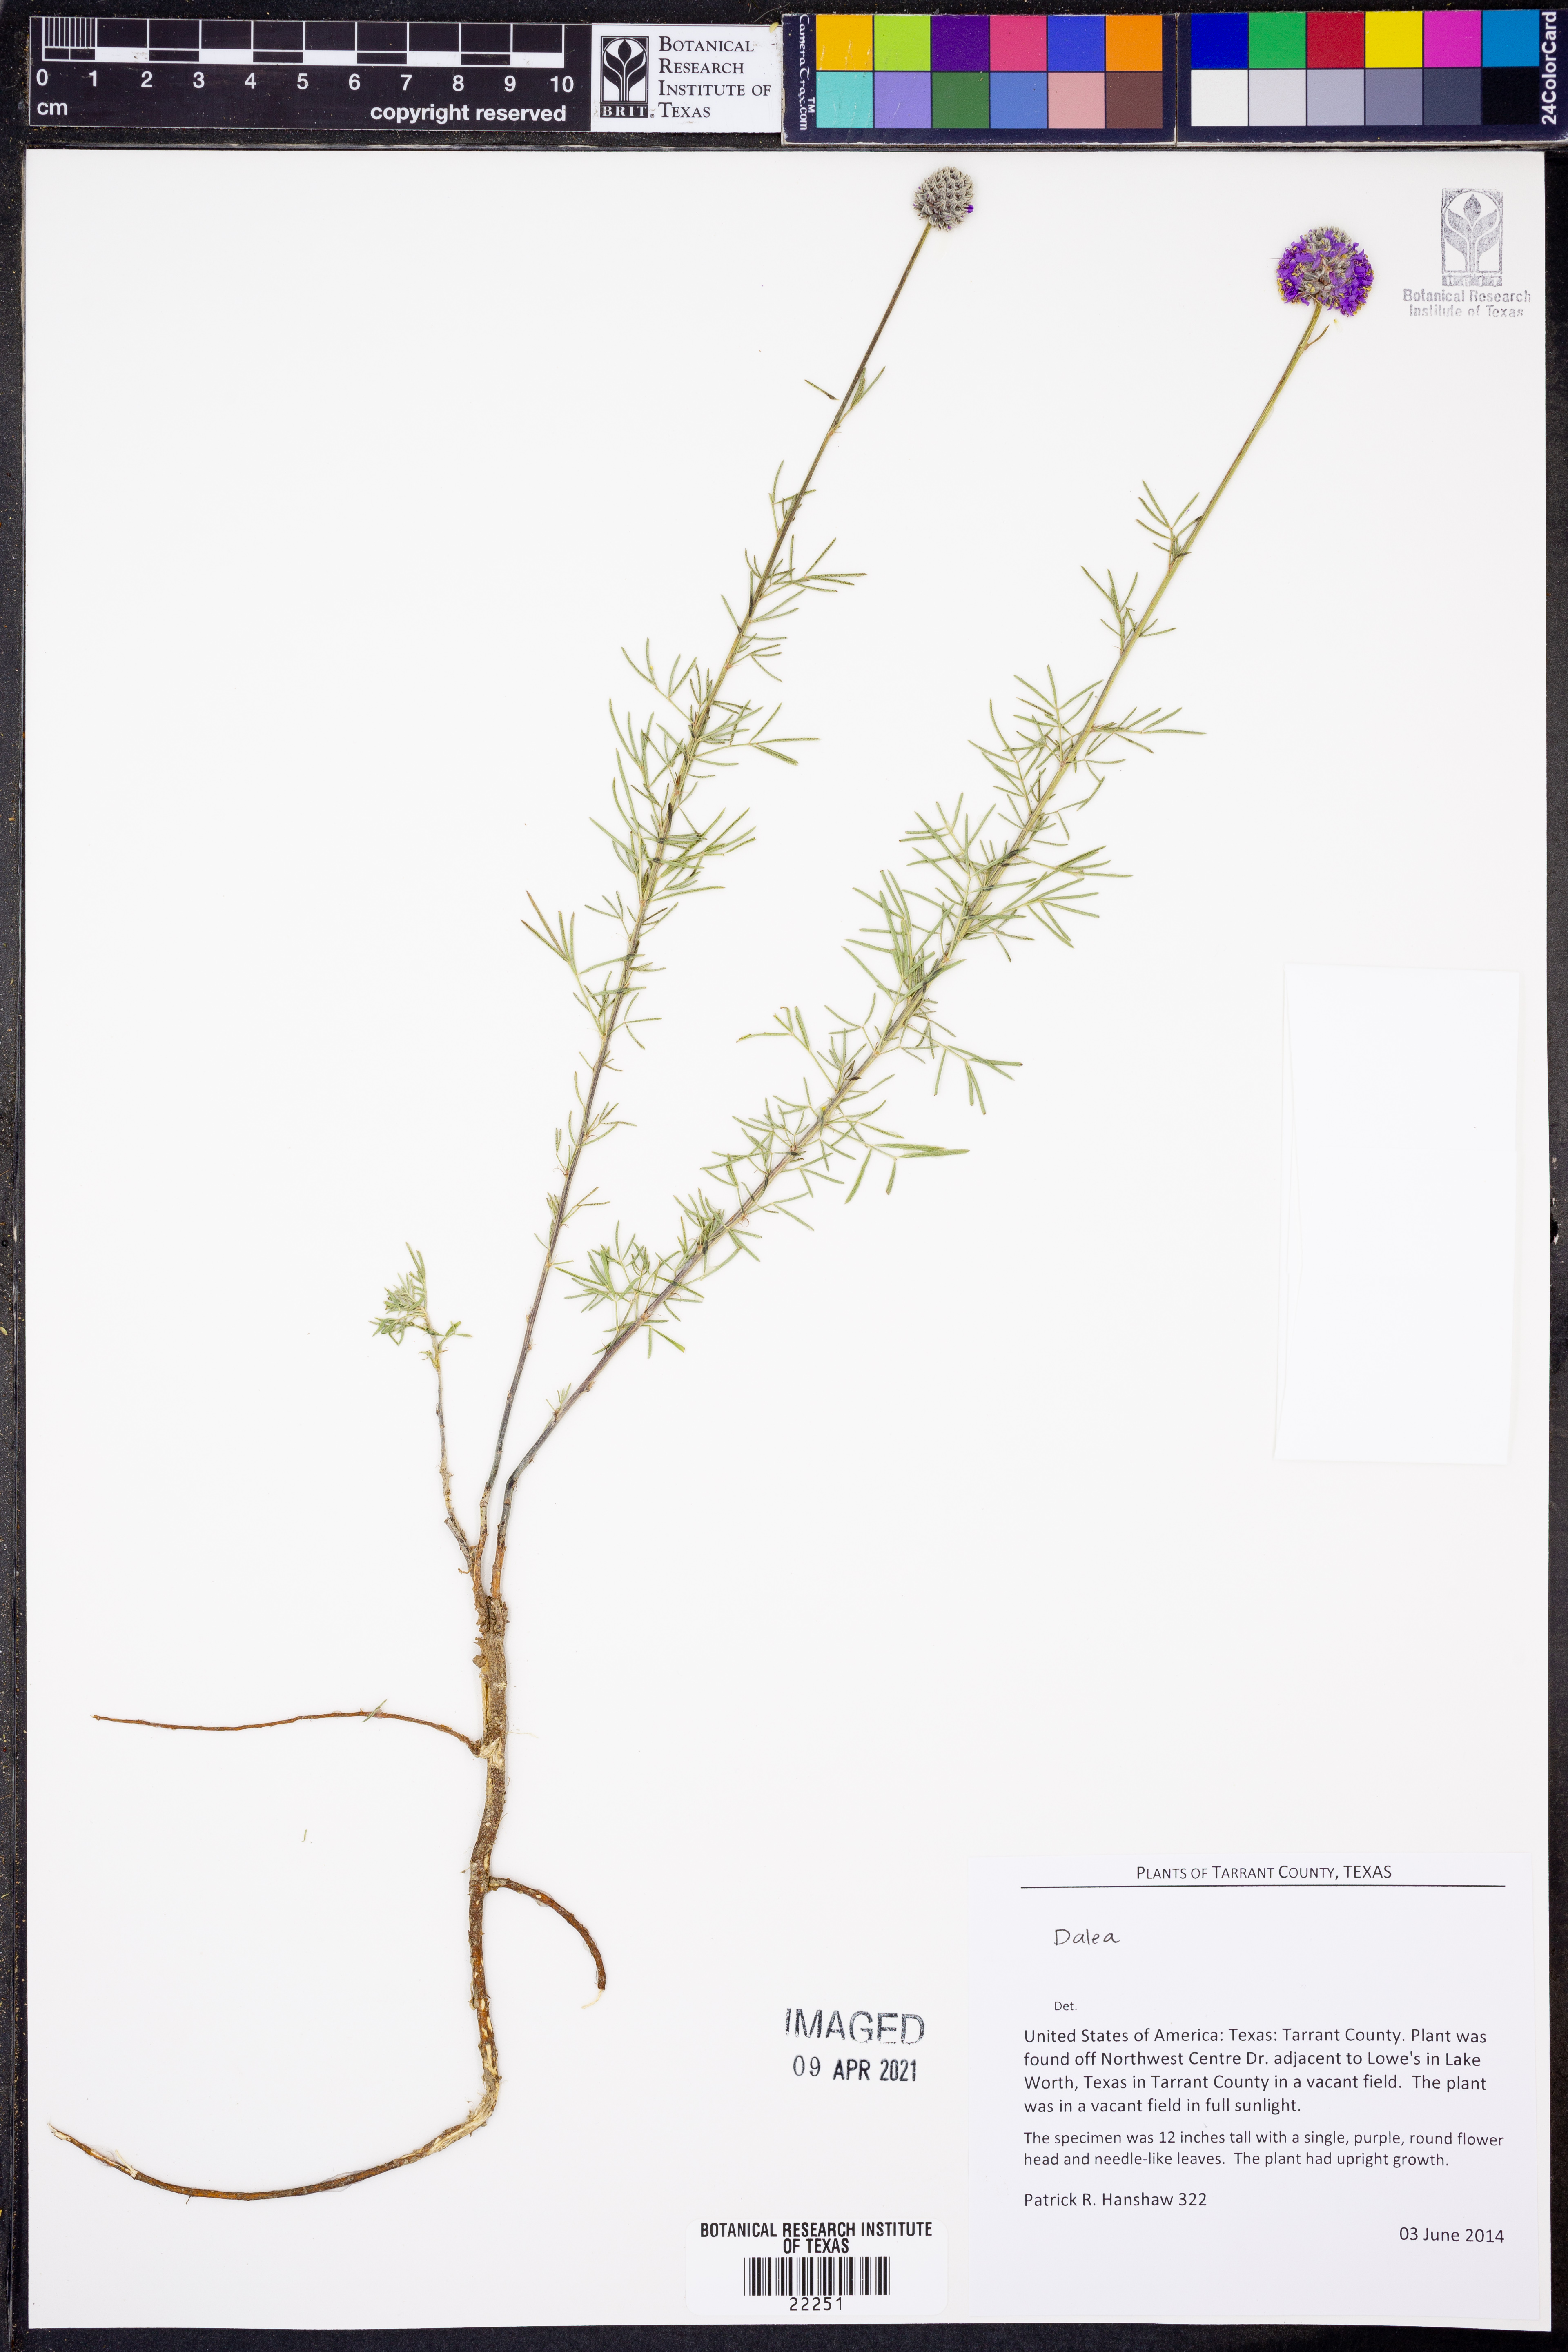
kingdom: Plantae
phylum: Tracheophyta
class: Magnoliopsida
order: Fabales
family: Fabaceae
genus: Dalea
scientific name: Dalea
